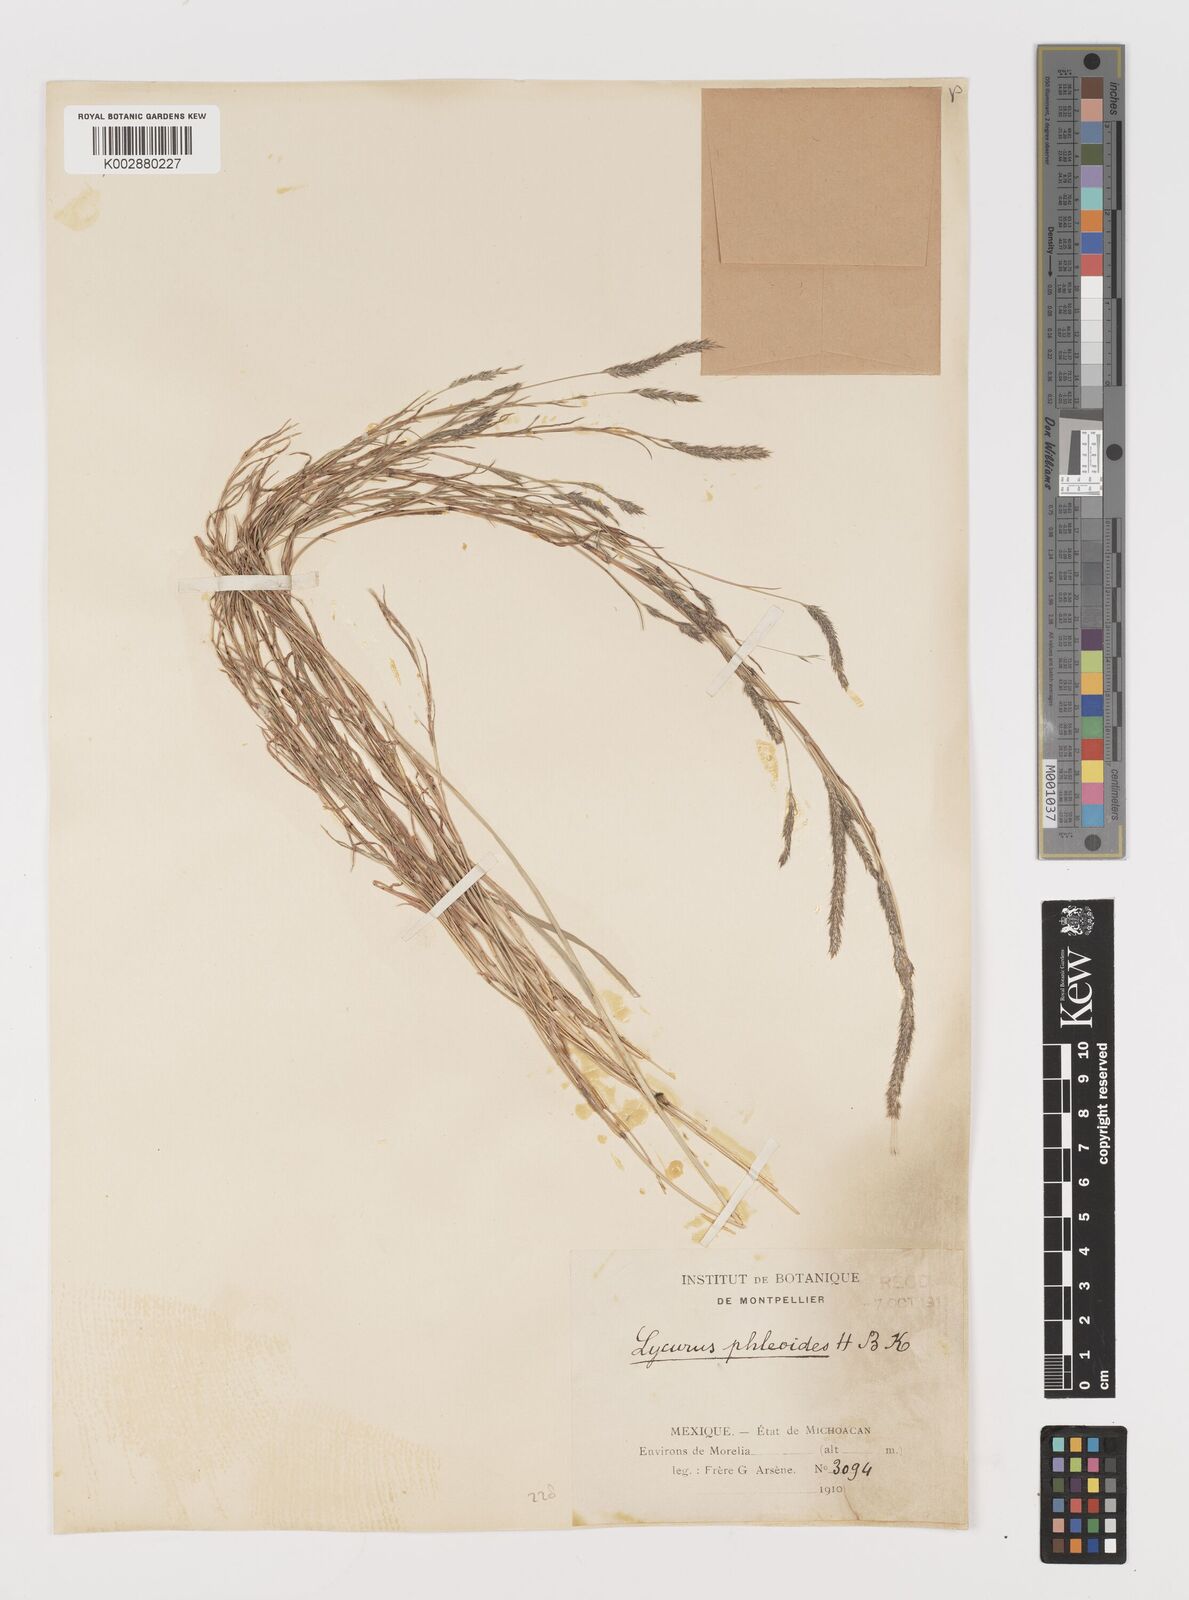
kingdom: Plantae
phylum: Tracheophyta
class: Liliopsida
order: Poales
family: Poaceae
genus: Muhlenbergia
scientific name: Muhlenbergia phleoides
